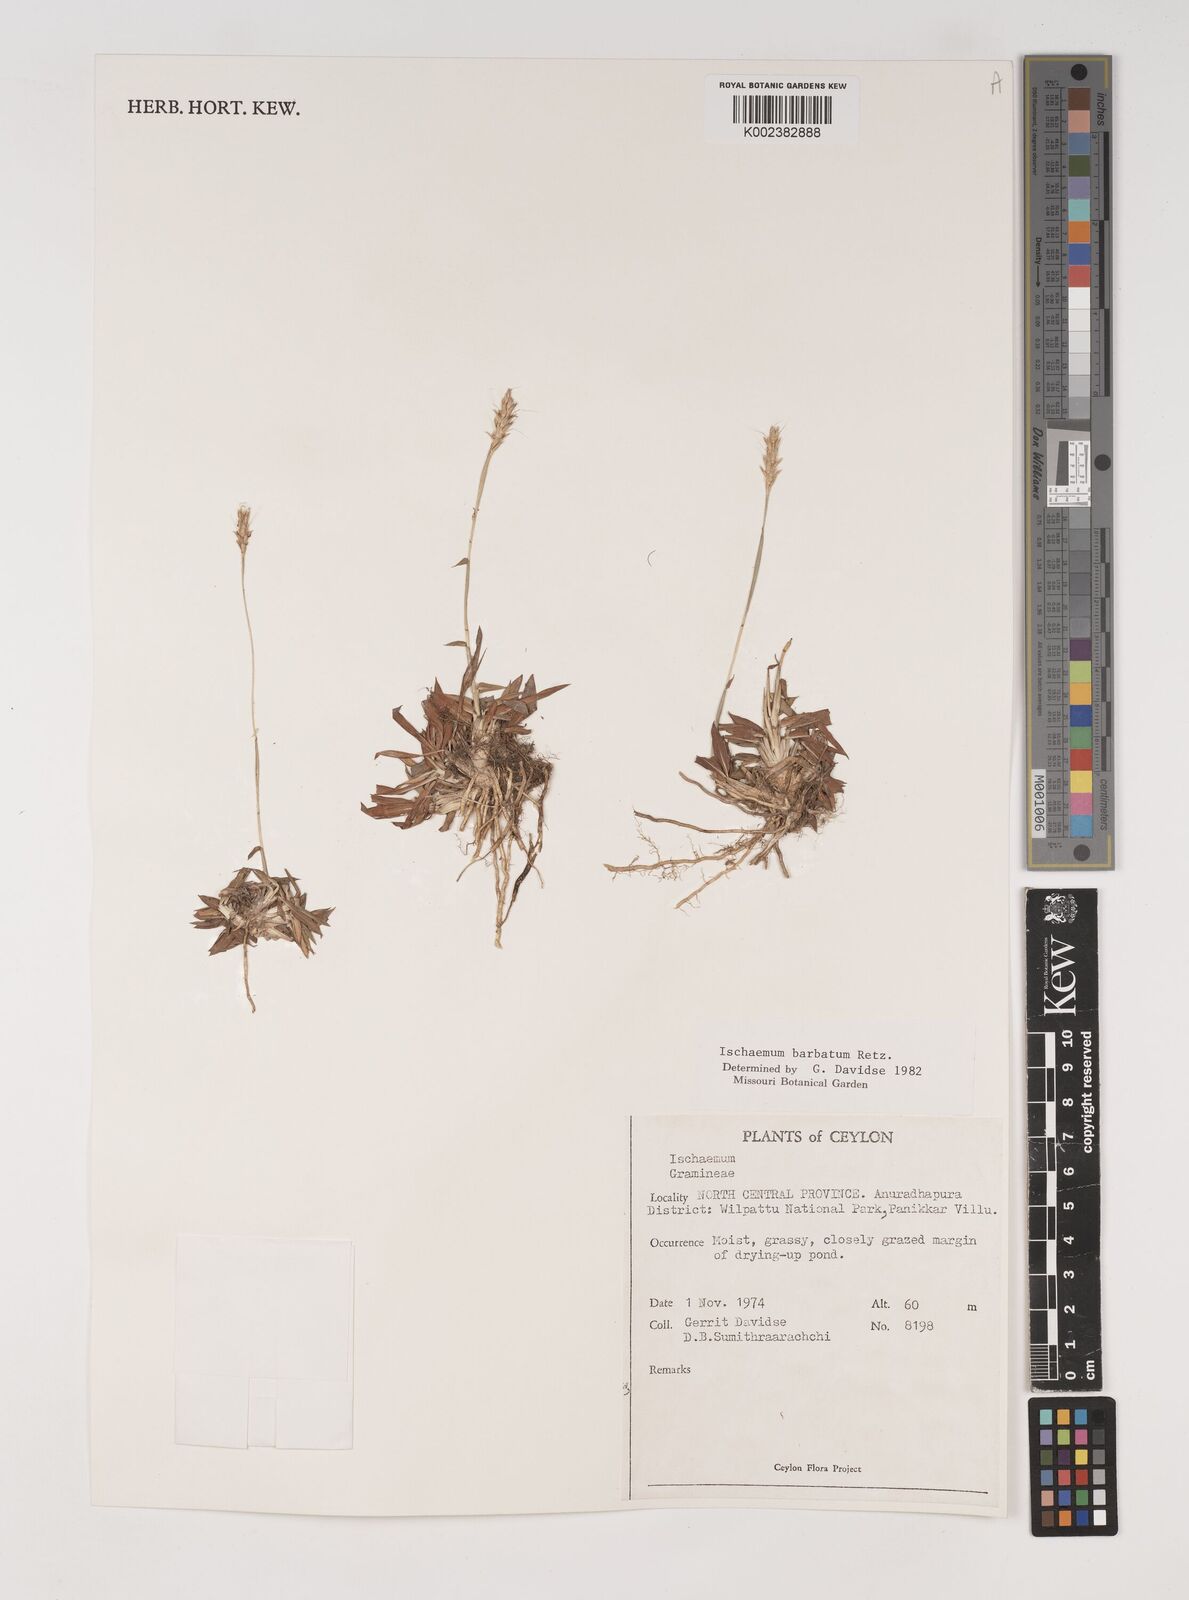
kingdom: Plantae
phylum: Tracheophyta
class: Liliopsida
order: Poales
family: Poaceae
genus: Ischaemum
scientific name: Ischaemum
